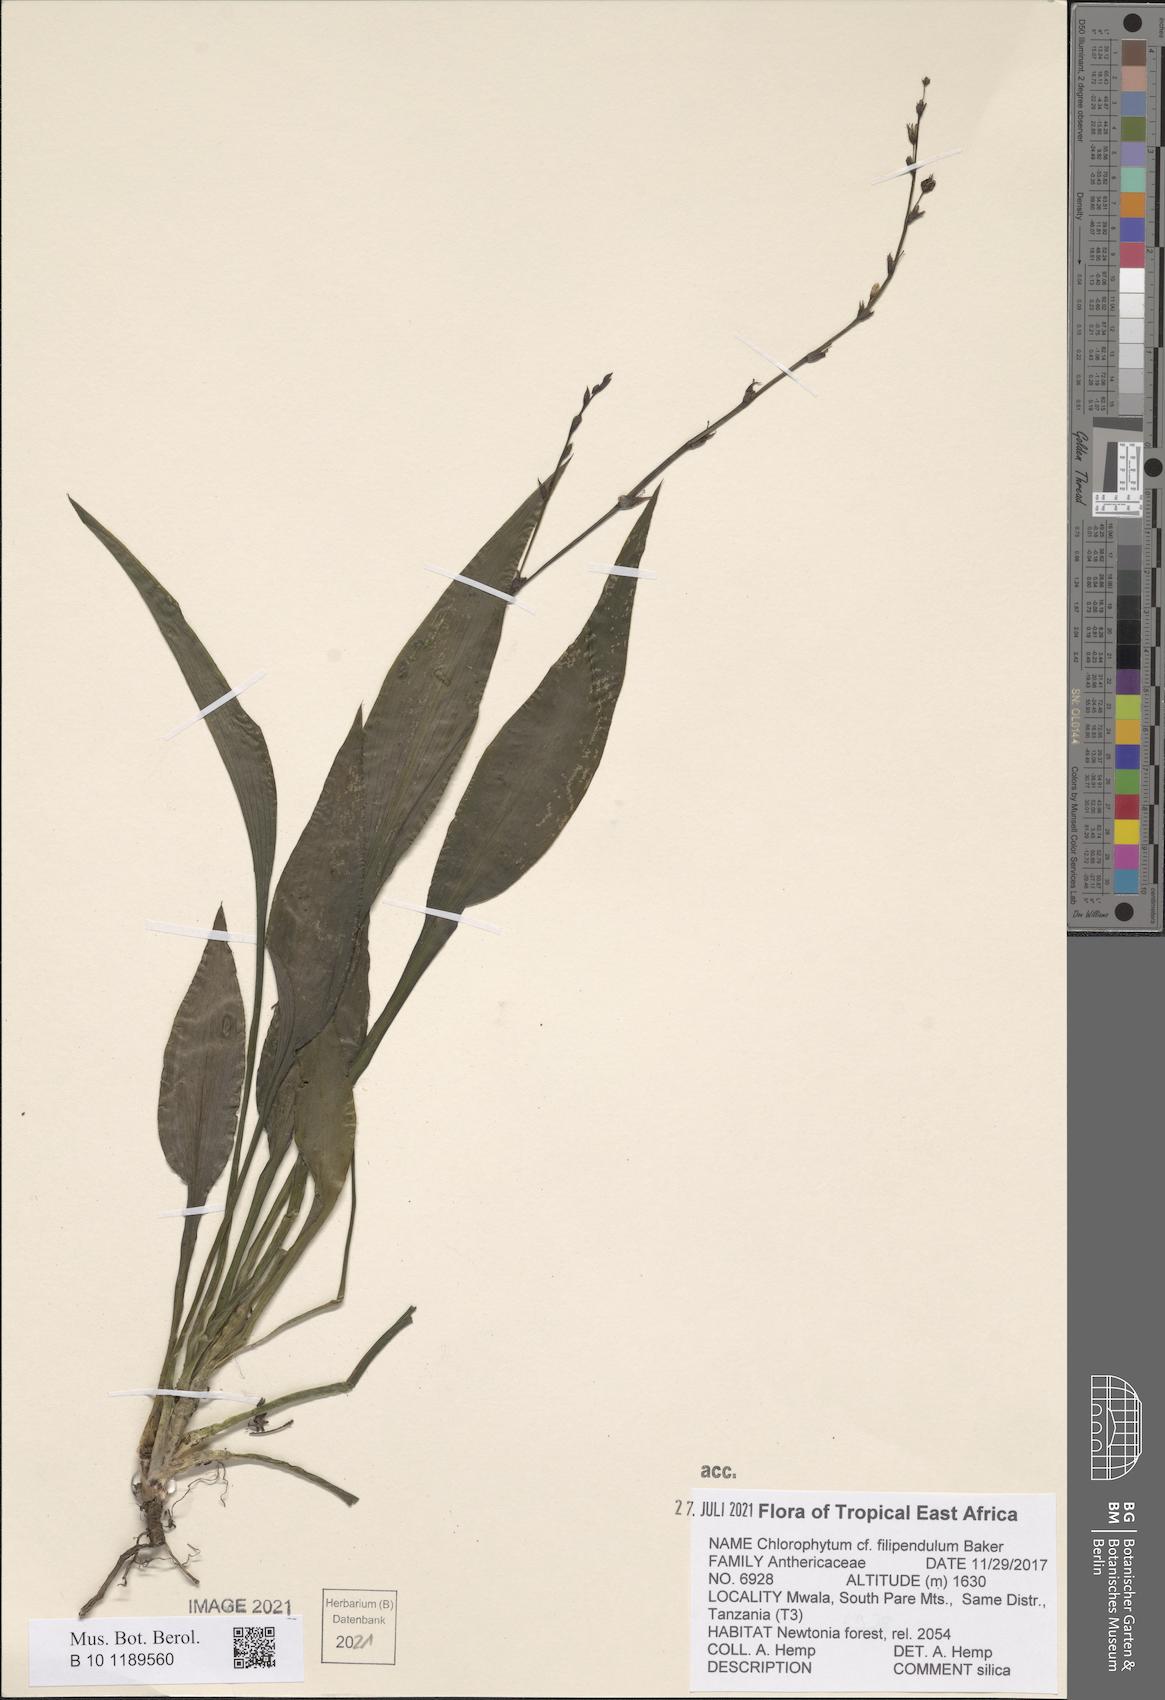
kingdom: Plantae
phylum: Tracheophyta
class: Liliopsida
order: Asparagales
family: Asparagaceae
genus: Chlorophytum
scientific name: Chlorophytum filipendulum
